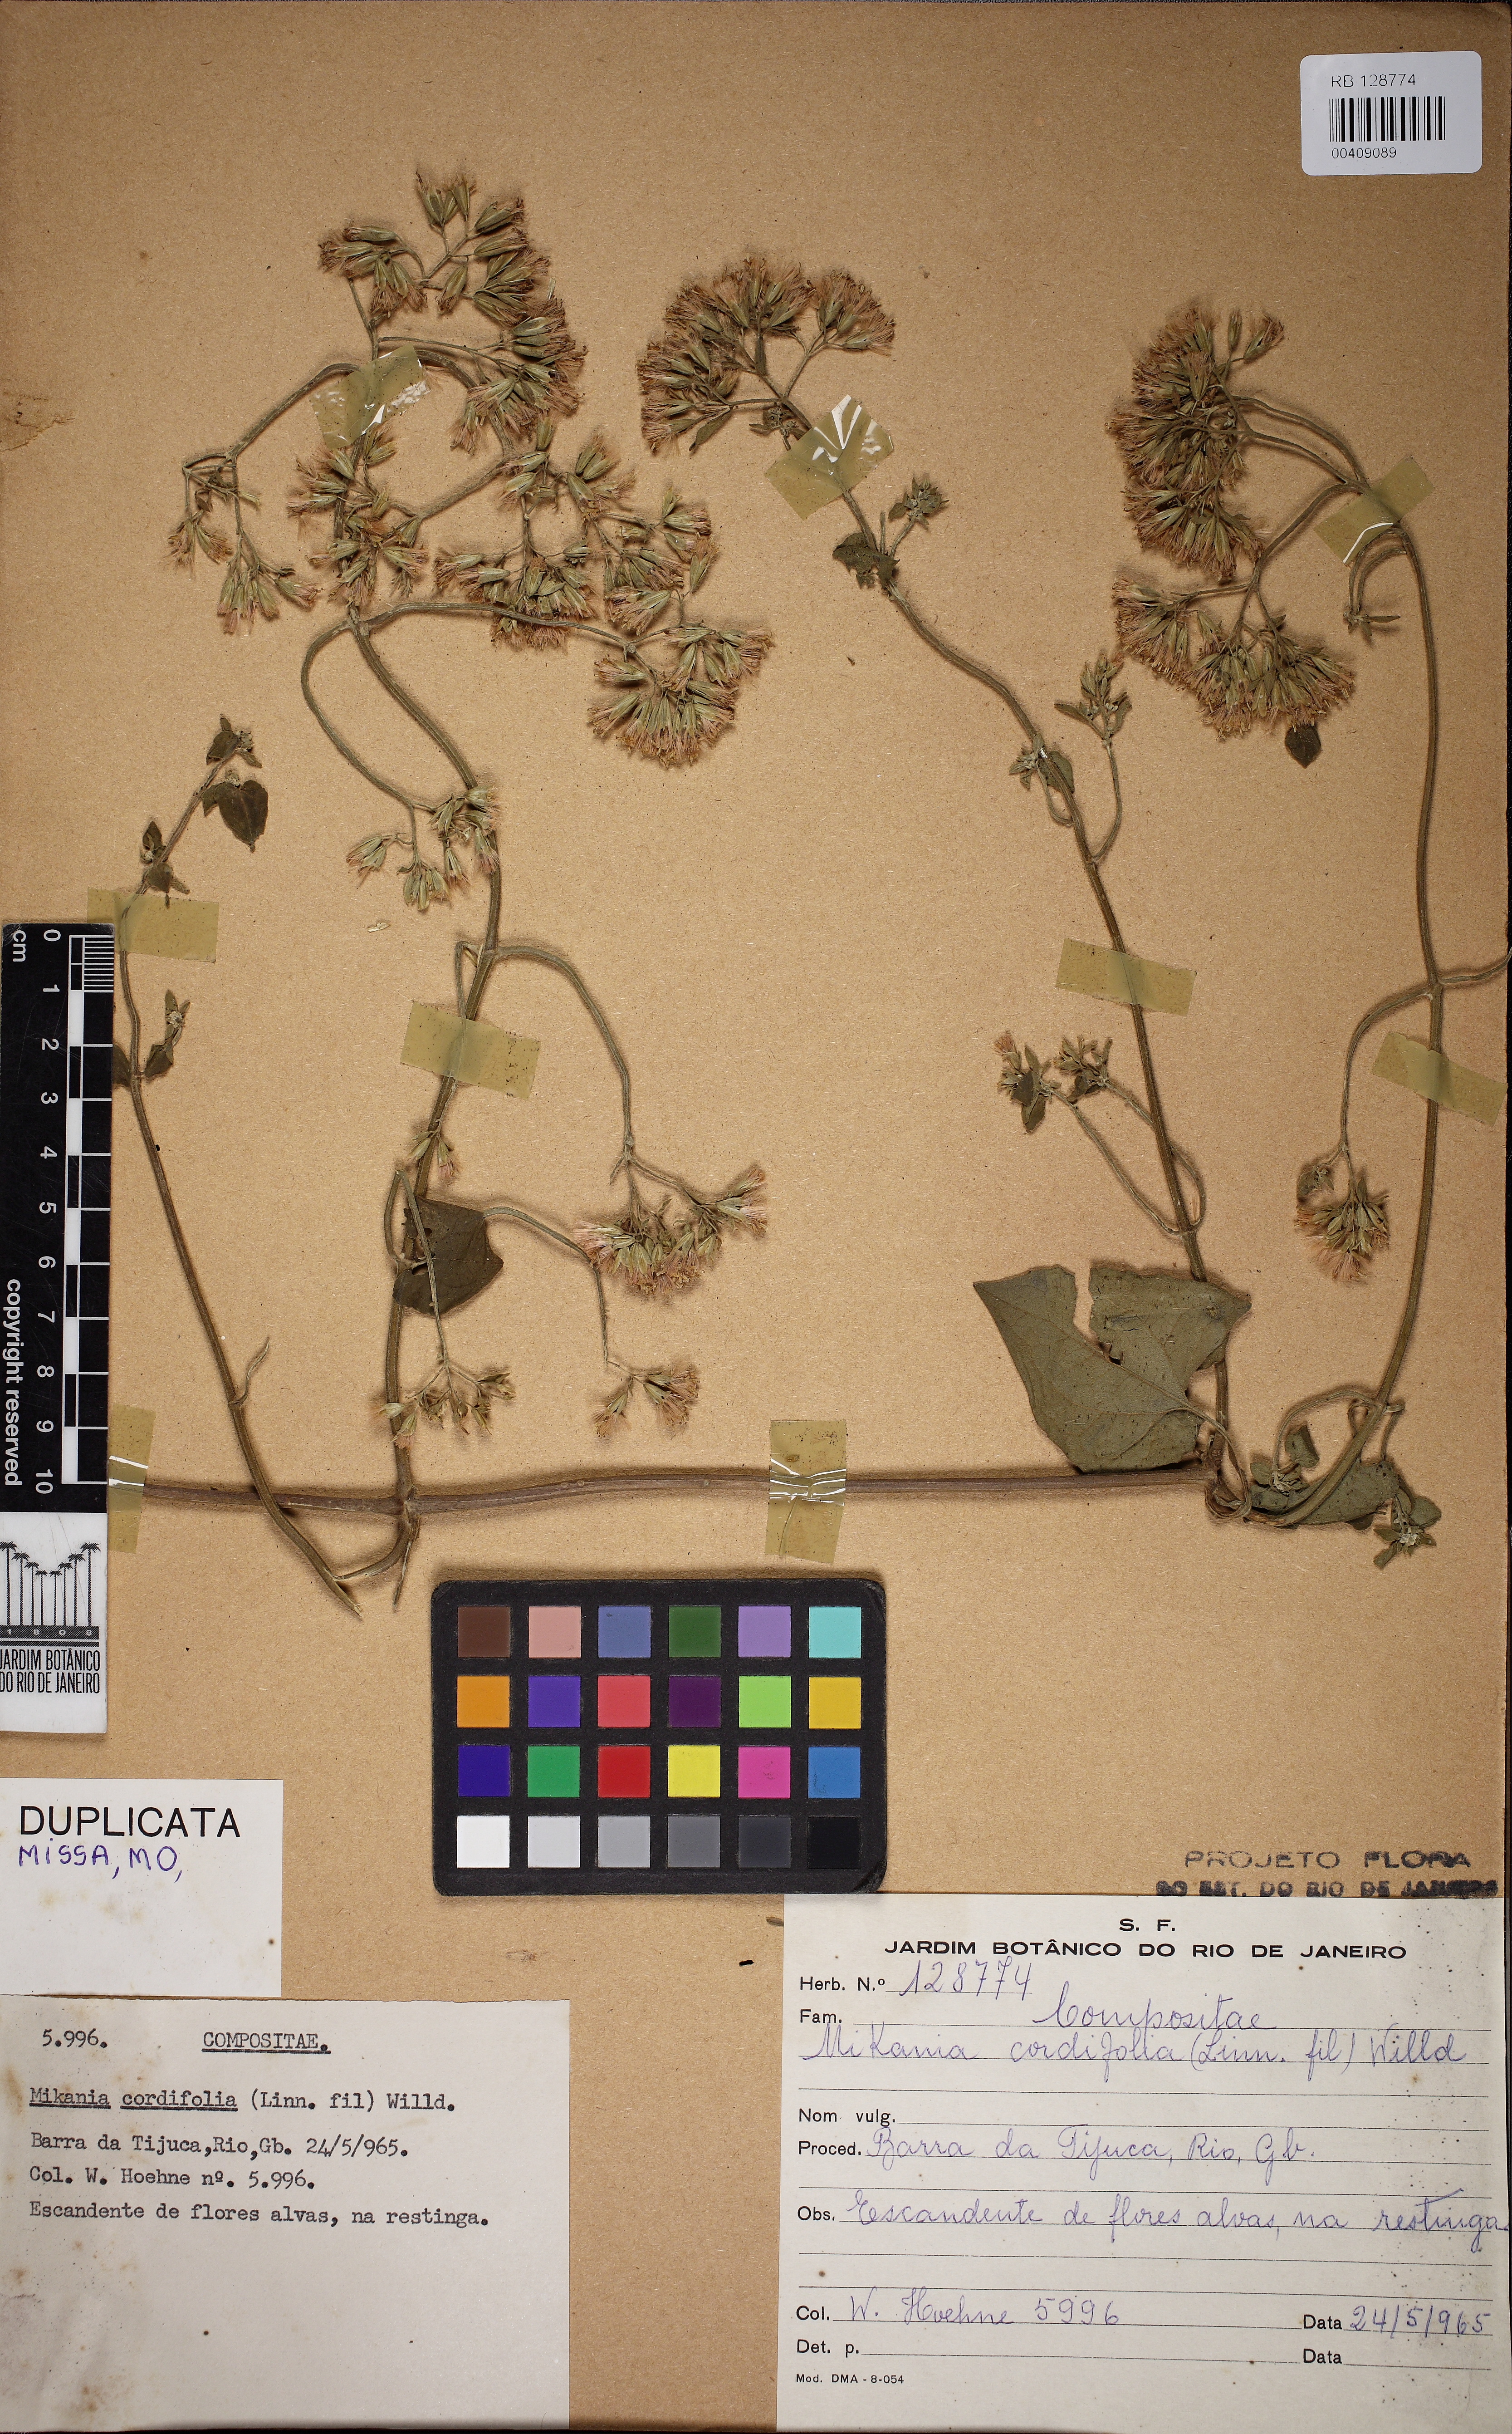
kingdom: Plantae
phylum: Tracheophyta
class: Magnoliopsida
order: Asterales
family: Asteraceae
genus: Mikania
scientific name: Mikania cordifolia
